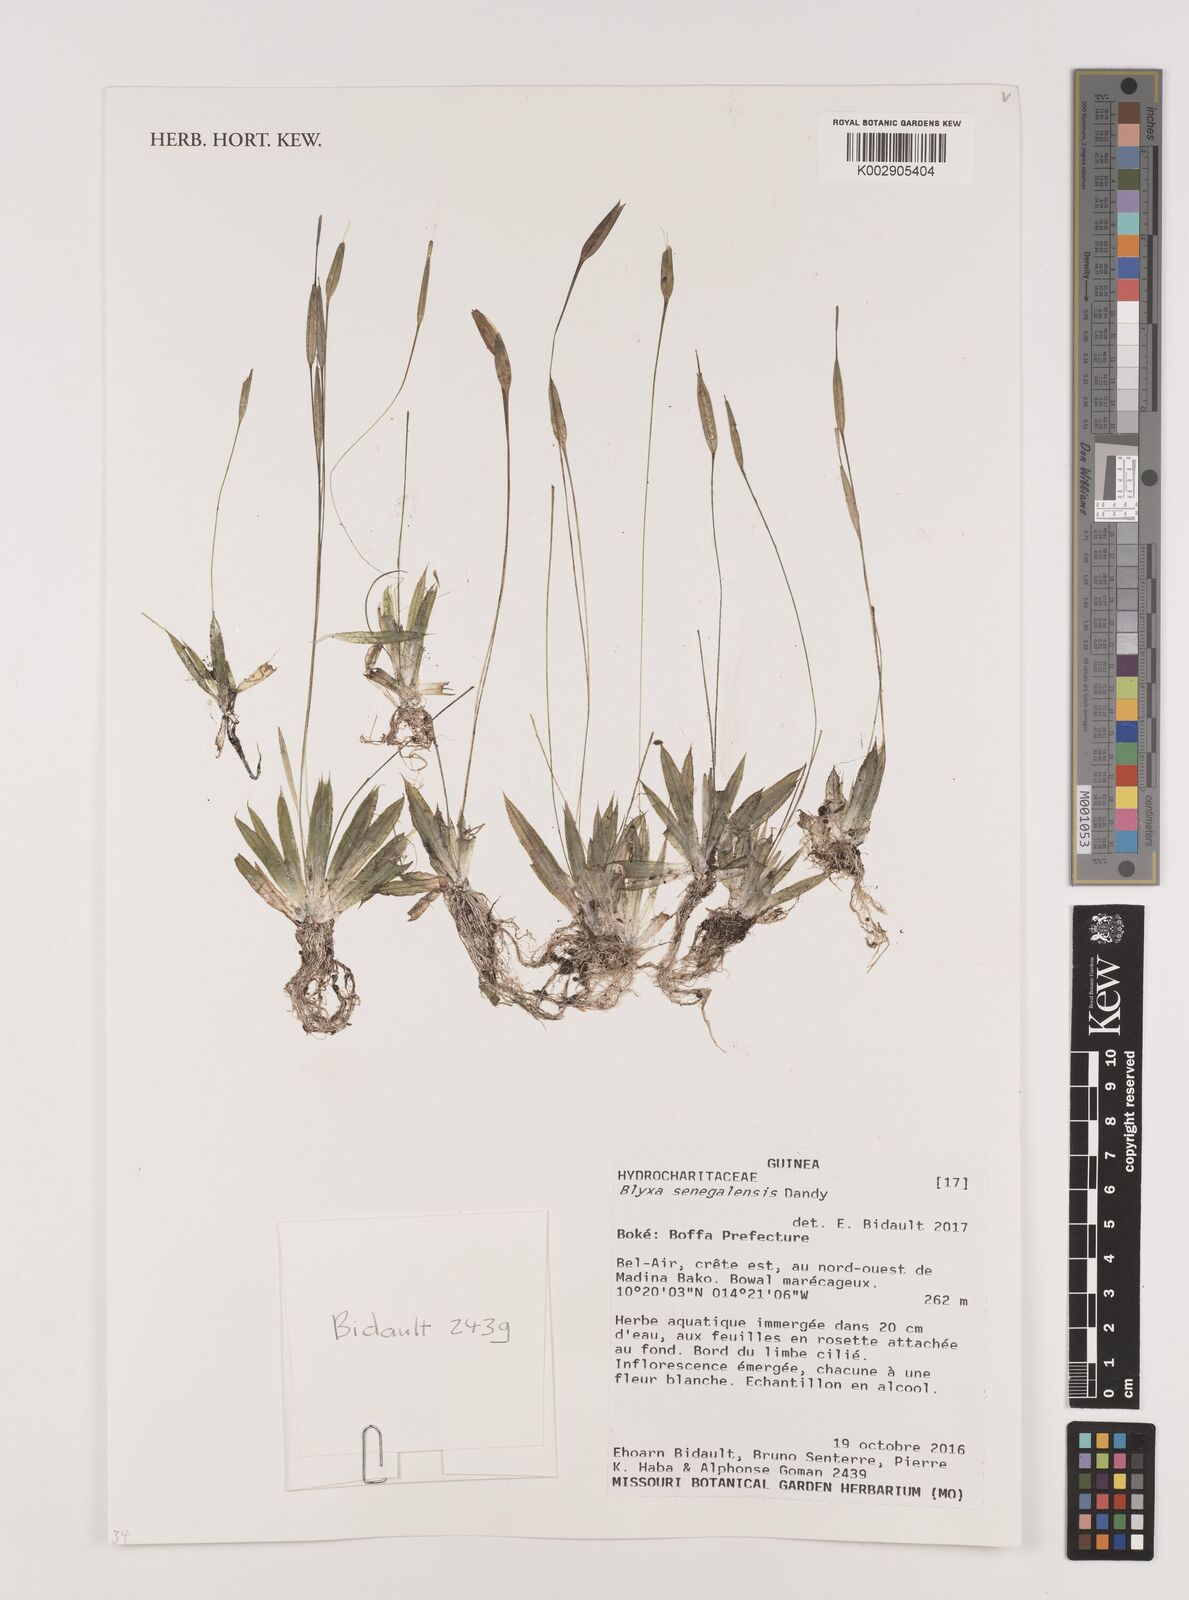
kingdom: Plantae
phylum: Tracheophyta
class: Liliopsida
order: Alismatales
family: Hydrocharitaceae
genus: Blyxa
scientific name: Blyxa senegalensis
